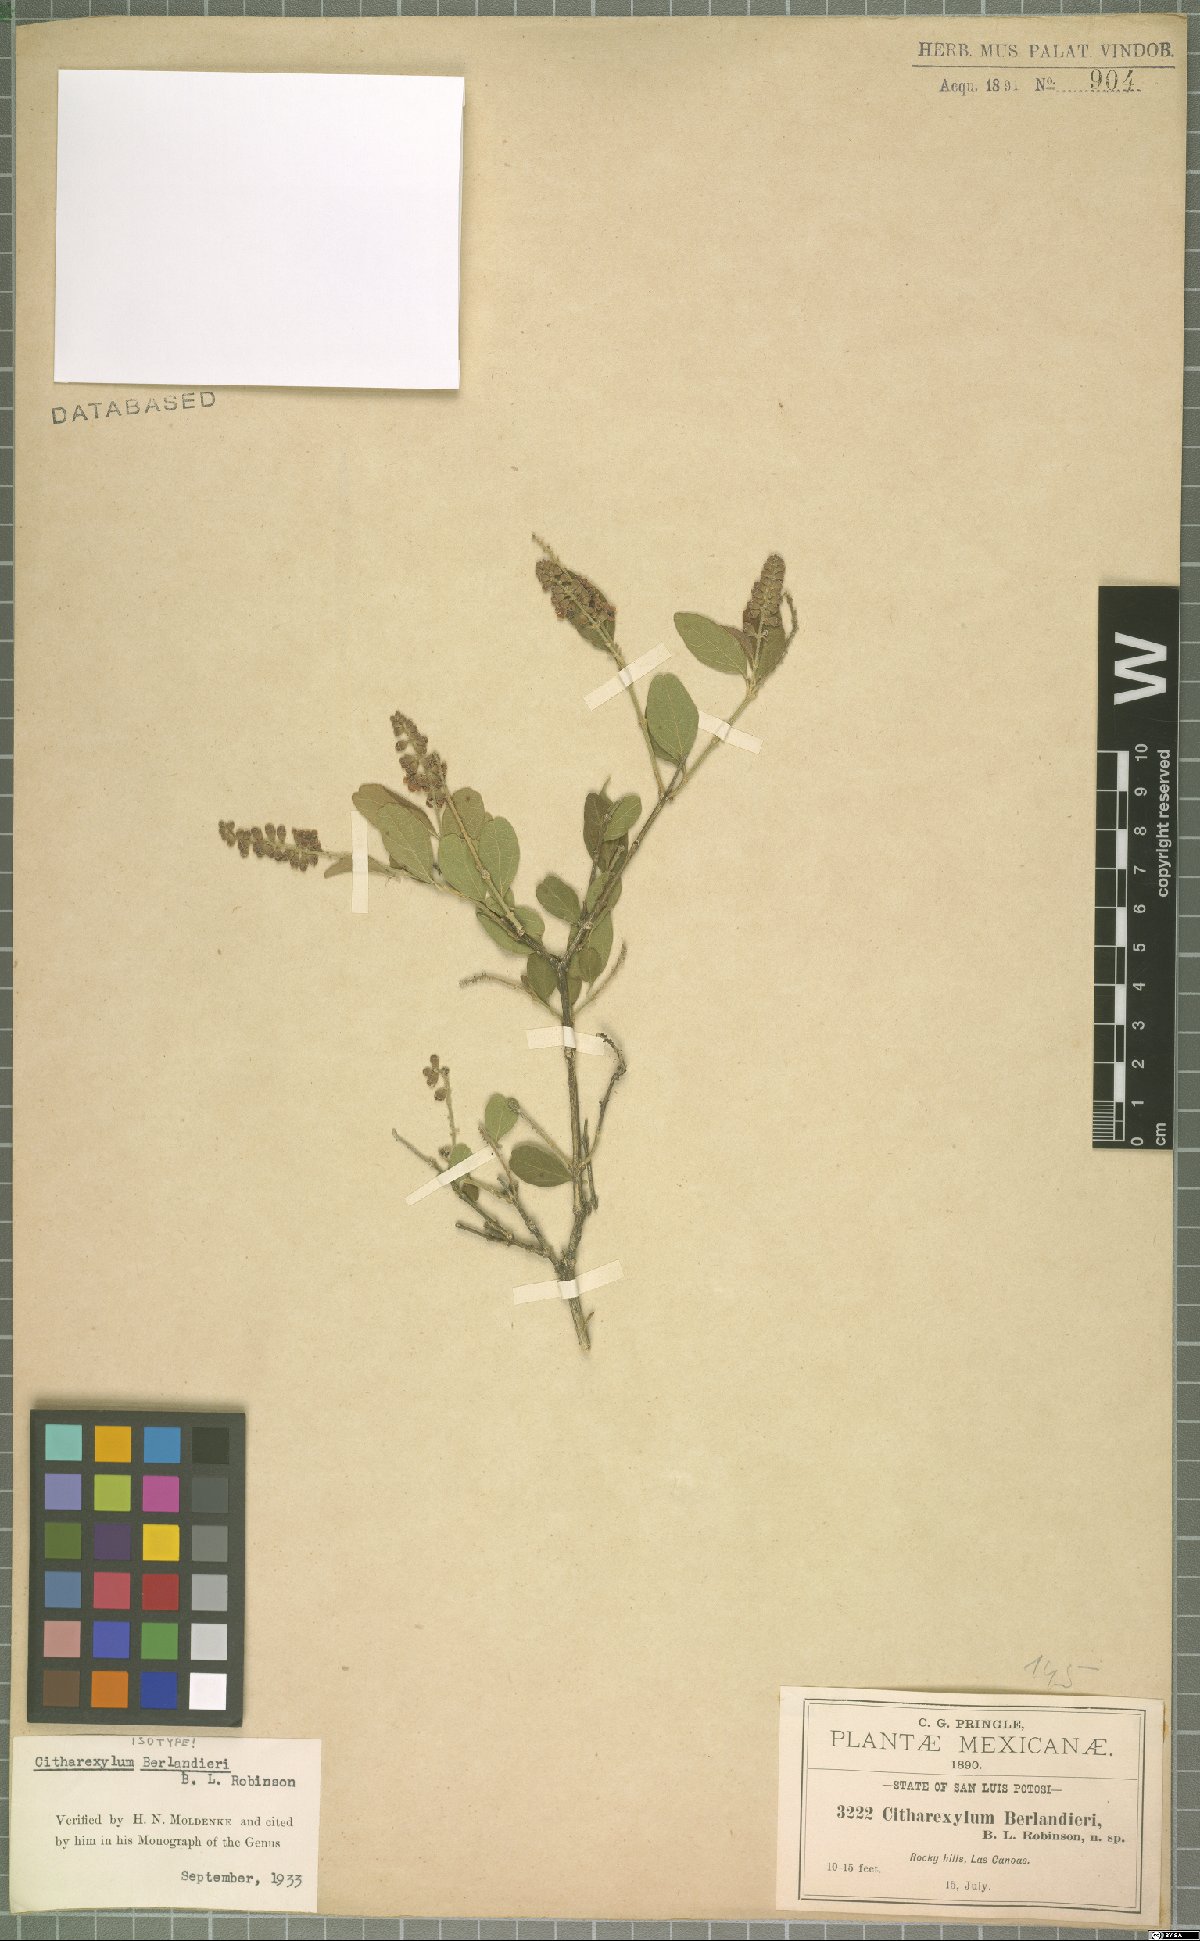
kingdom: Plantae
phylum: Tracheophyta
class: Magnoliopsida
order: Lamiales
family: Verbenaceae
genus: Citharexylum
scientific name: Citharexylum berlandieri
